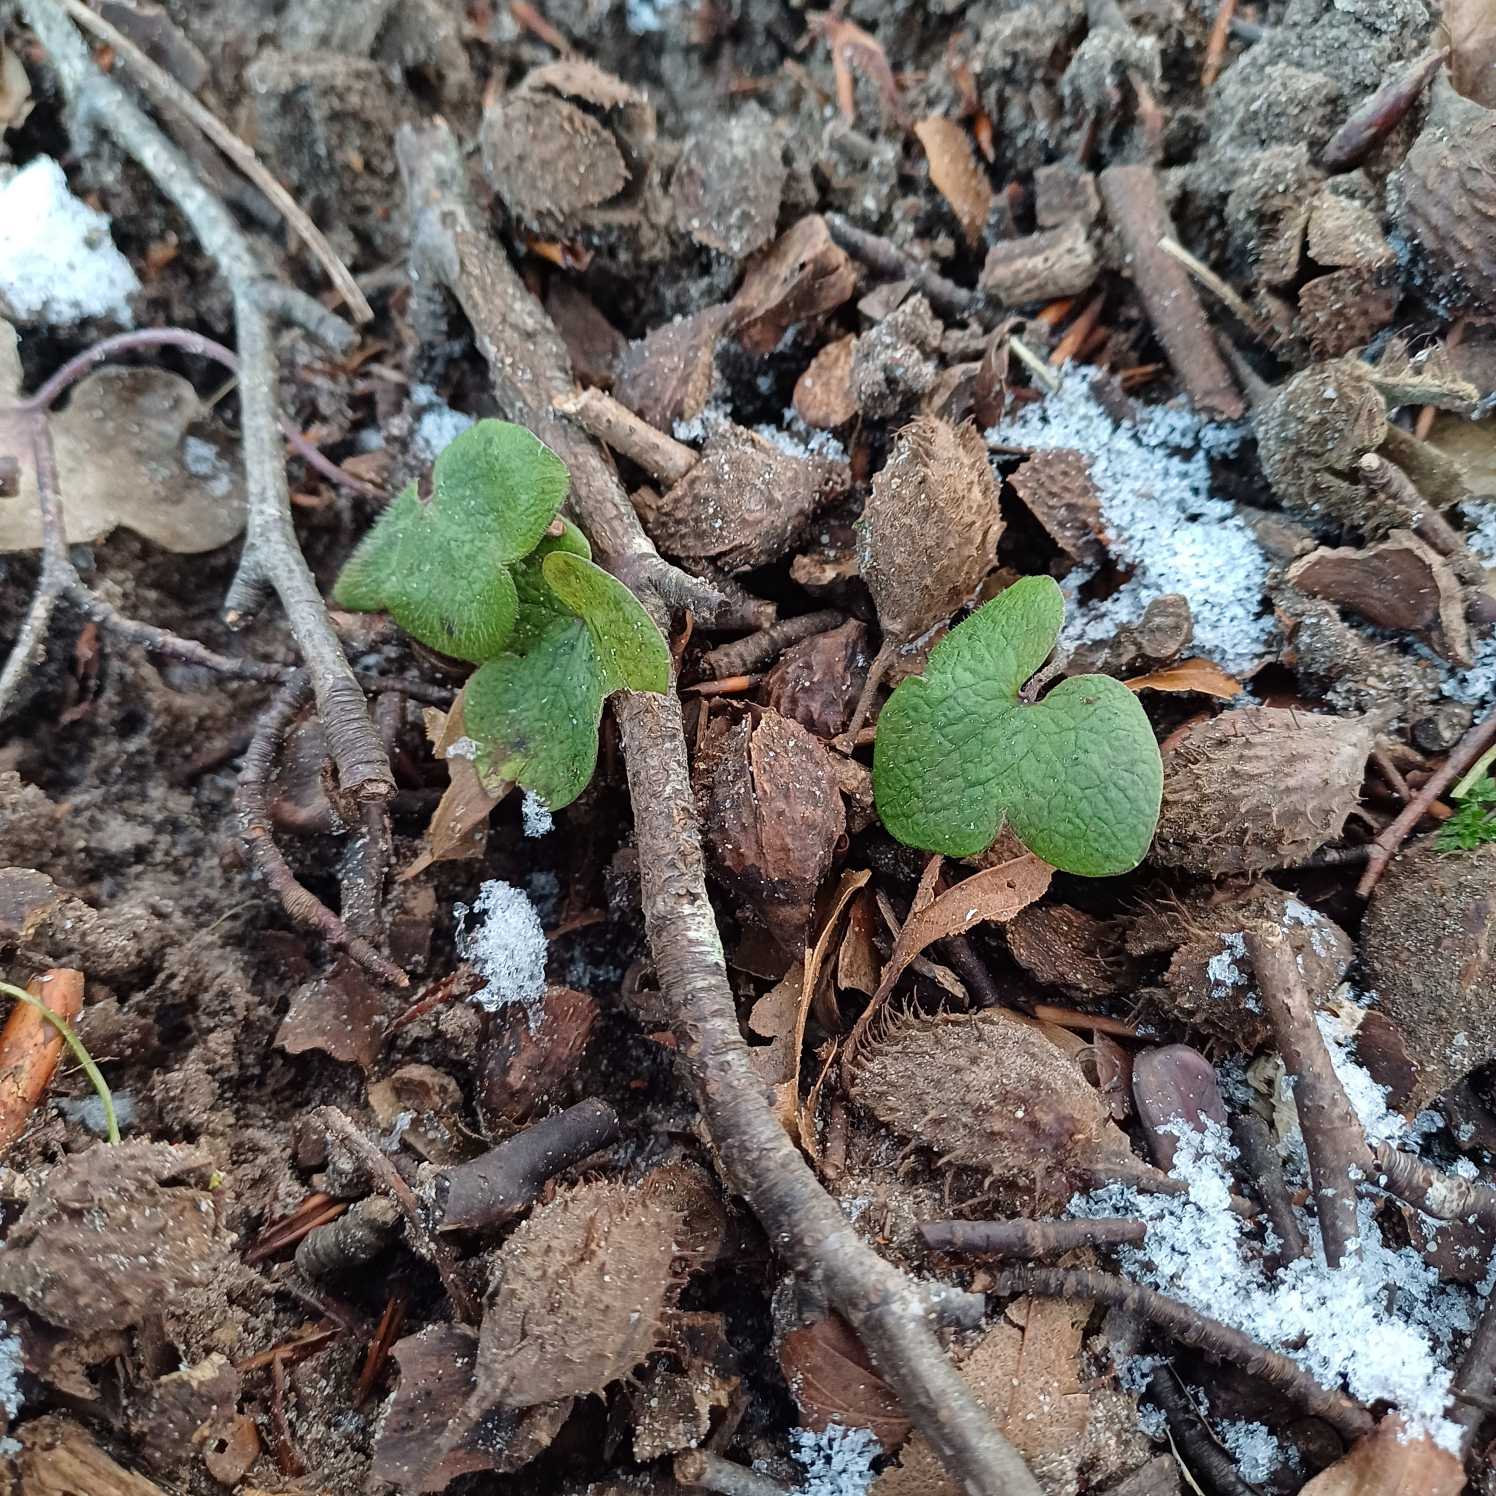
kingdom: Plantae
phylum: Tracheophyta
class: Magnoliopsida
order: Ranunculales
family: Ranunculaceae
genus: Hepatica
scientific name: Hepatica nobilis
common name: Blå anemone
